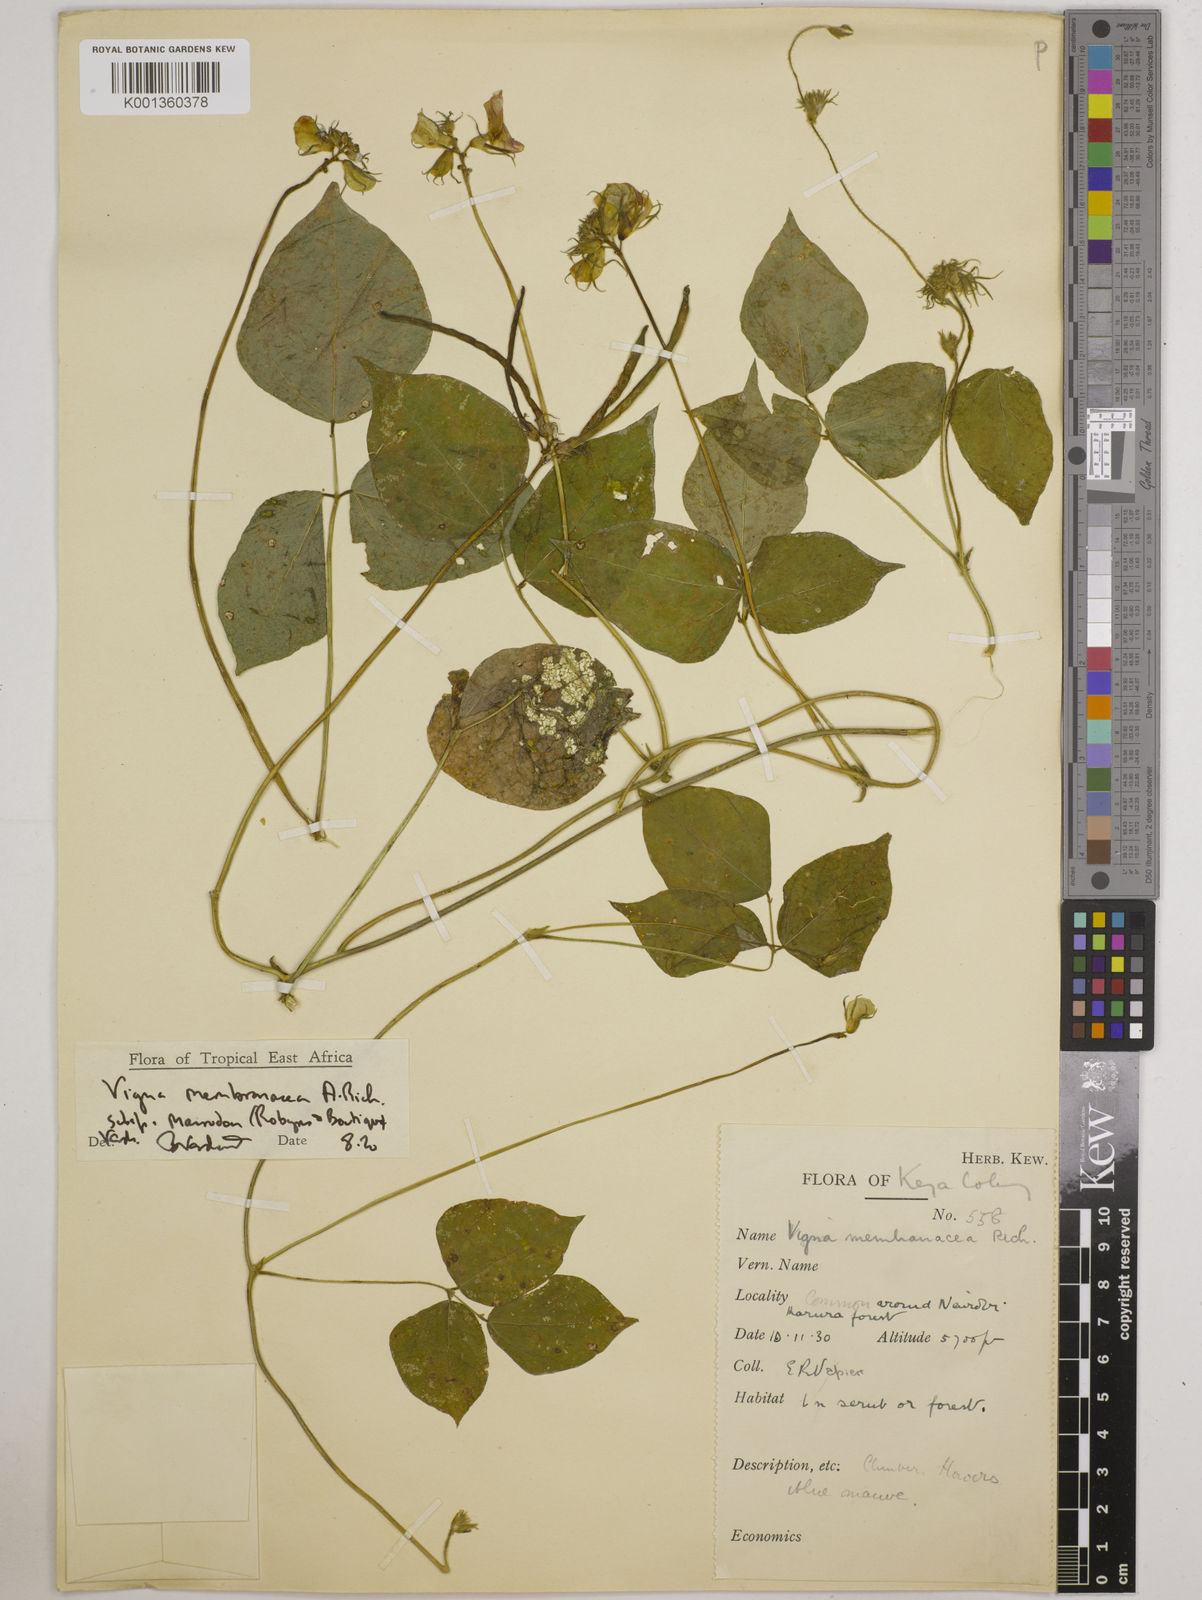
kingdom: Plantae
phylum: Tracheophyta
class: Magnoliopsida
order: Fabales
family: Fabaceae
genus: Vigna
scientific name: Vigna
